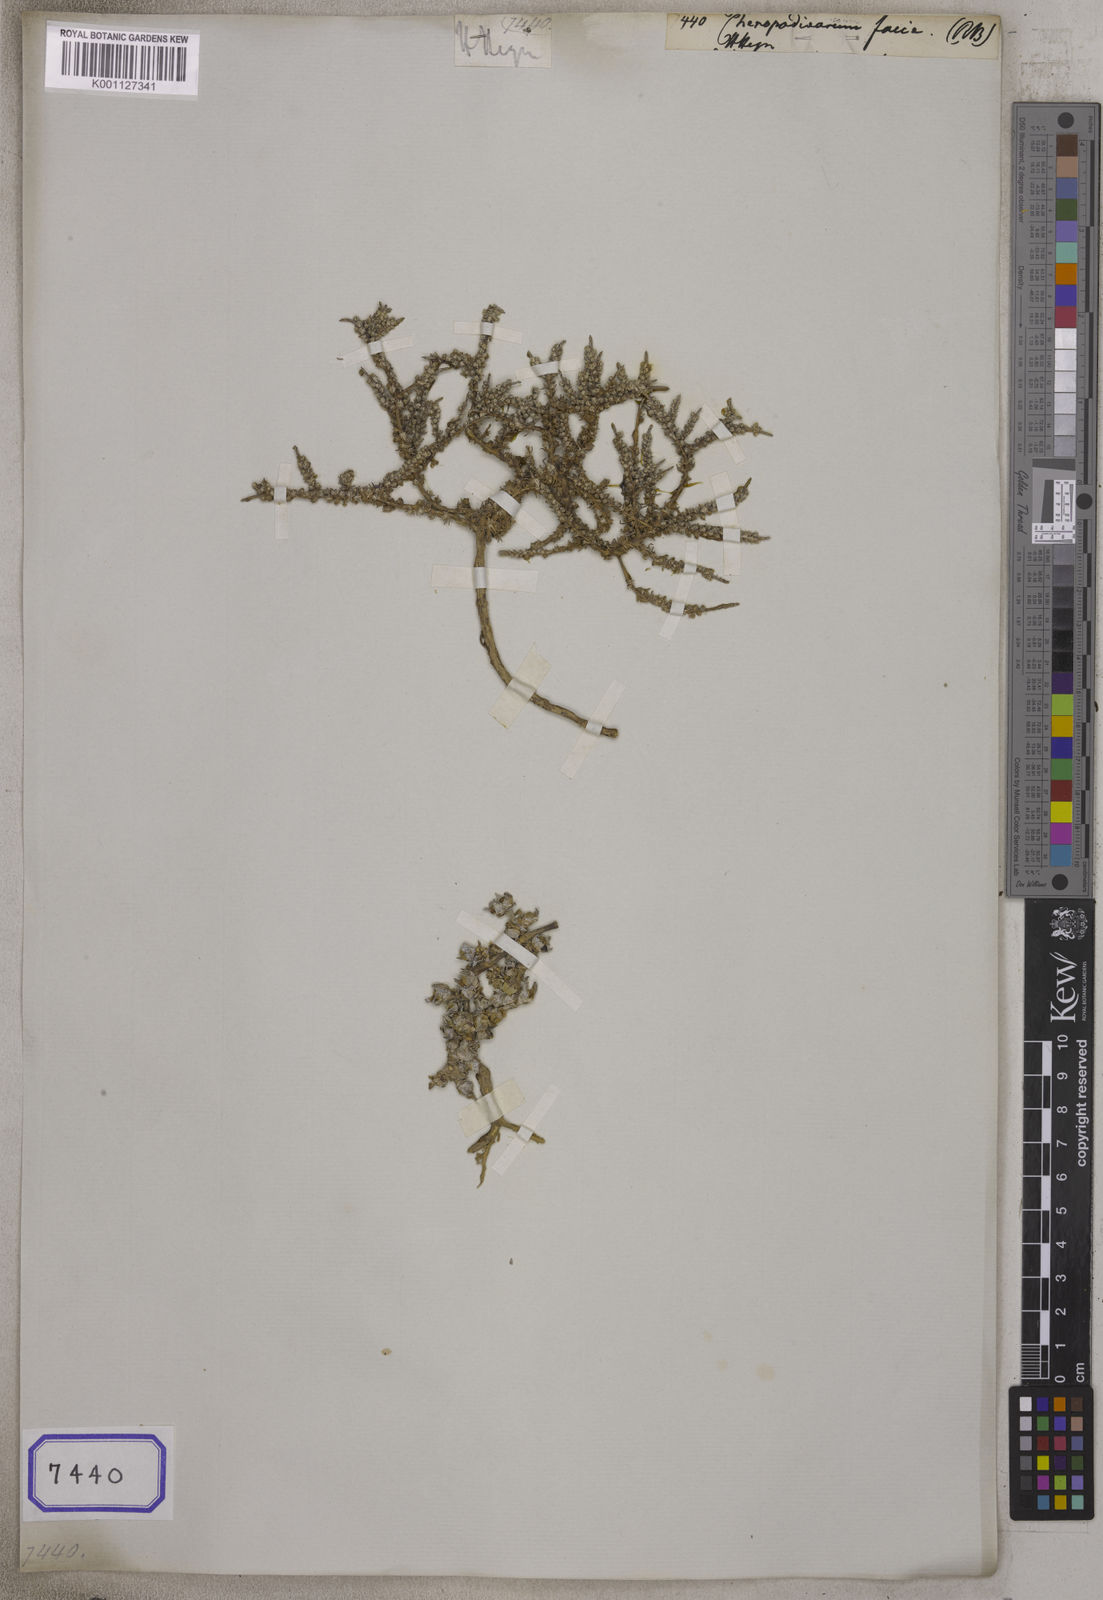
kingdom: Plantae
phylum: Tracheophyta
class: Magnoliopsida
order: Caryophyllales
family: Amaranthaceae
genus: Chenopodium
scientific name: Chenopodium
